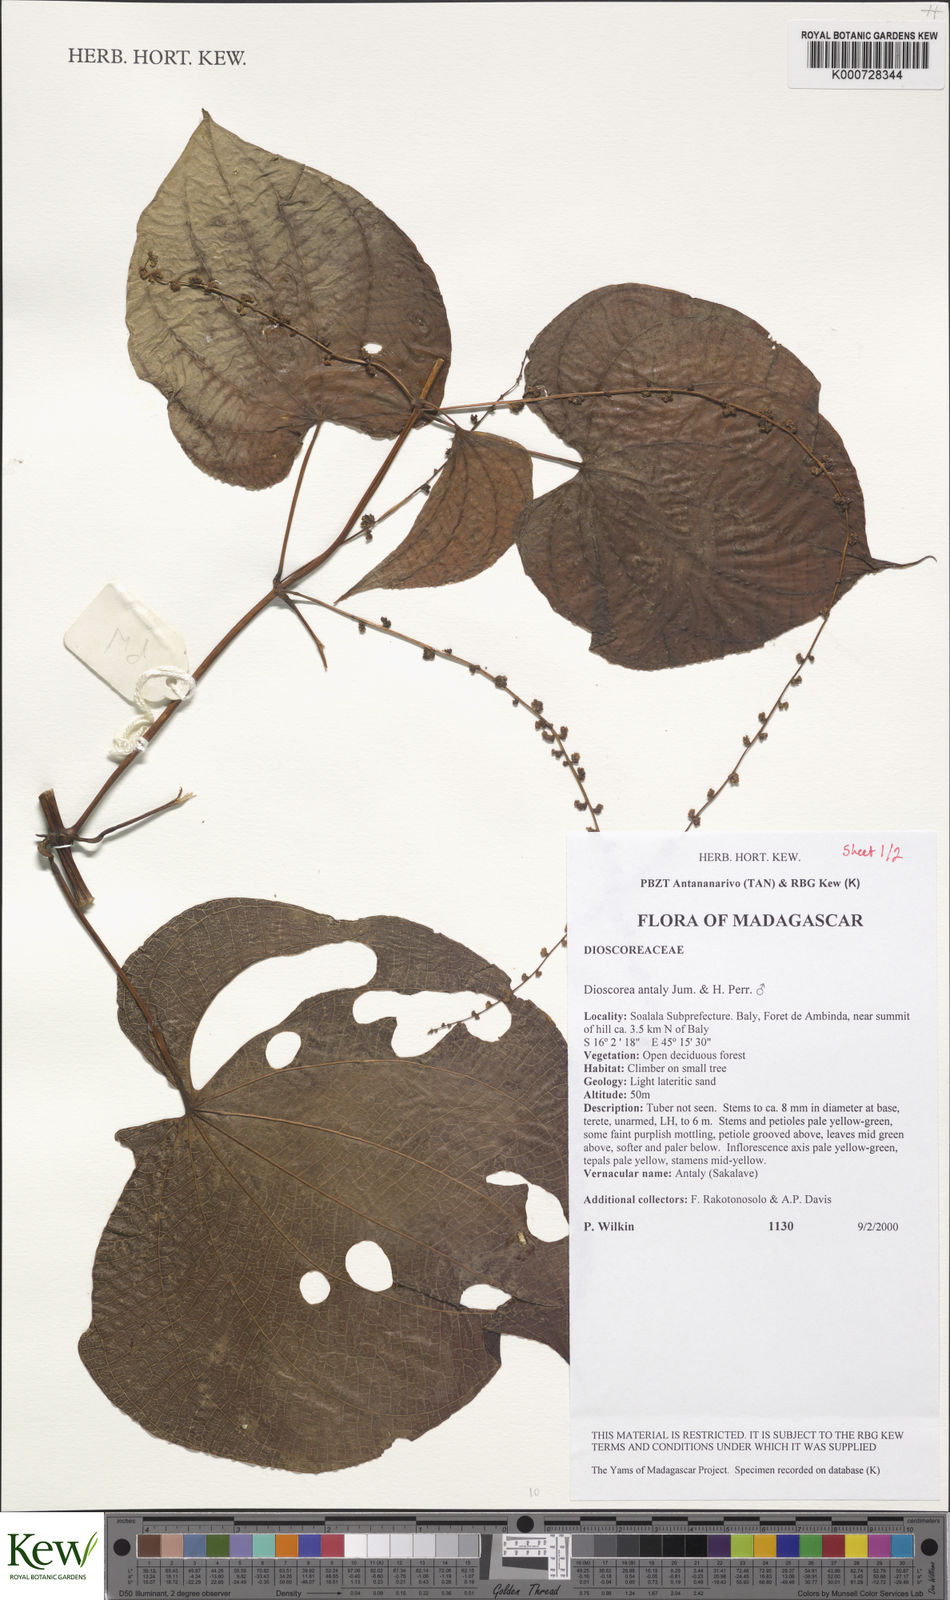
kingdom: Plantae
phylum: Tracheophyta
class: Liliopsida
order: Dioscoreales
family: Dioscoreaceae
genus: Dioscorea
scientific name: Dioscorea antaly
